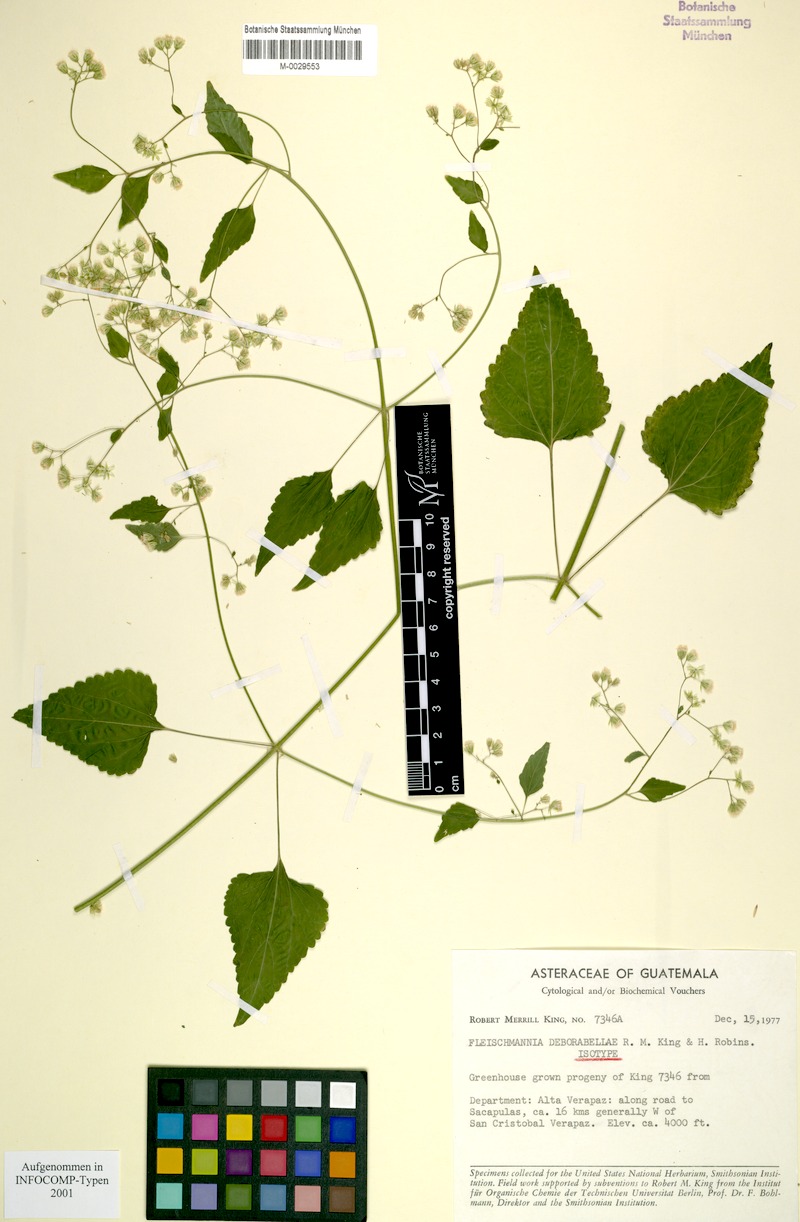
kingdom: Plantae
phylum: Tracheophyta
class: Magnoliopsida
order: Asterales
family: Asteraceae
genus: Fleischmannia
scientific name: Fleischmannia deborabellae
